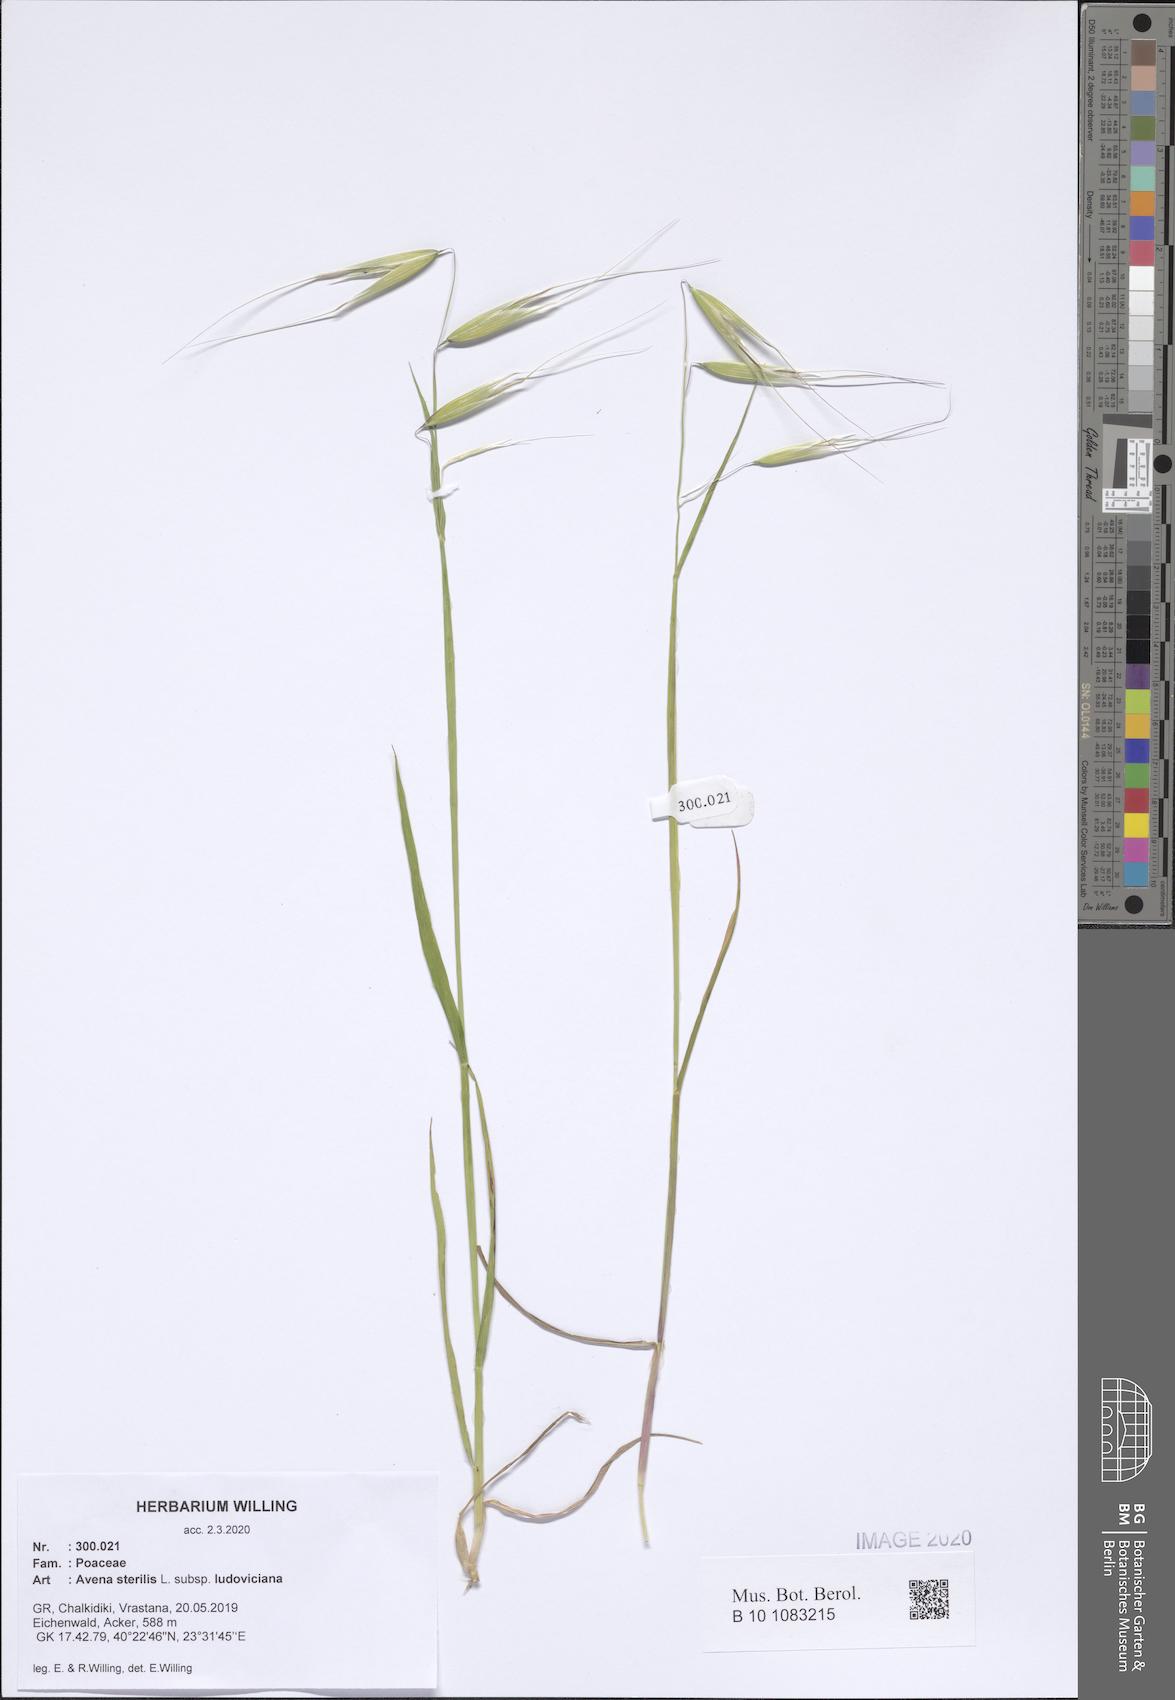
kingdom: Plantae
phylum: Tracheophyta
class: Liliopsida
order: Poales
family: Poaceae
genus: Avena
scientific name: Avena sterilis
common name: Animated oat
